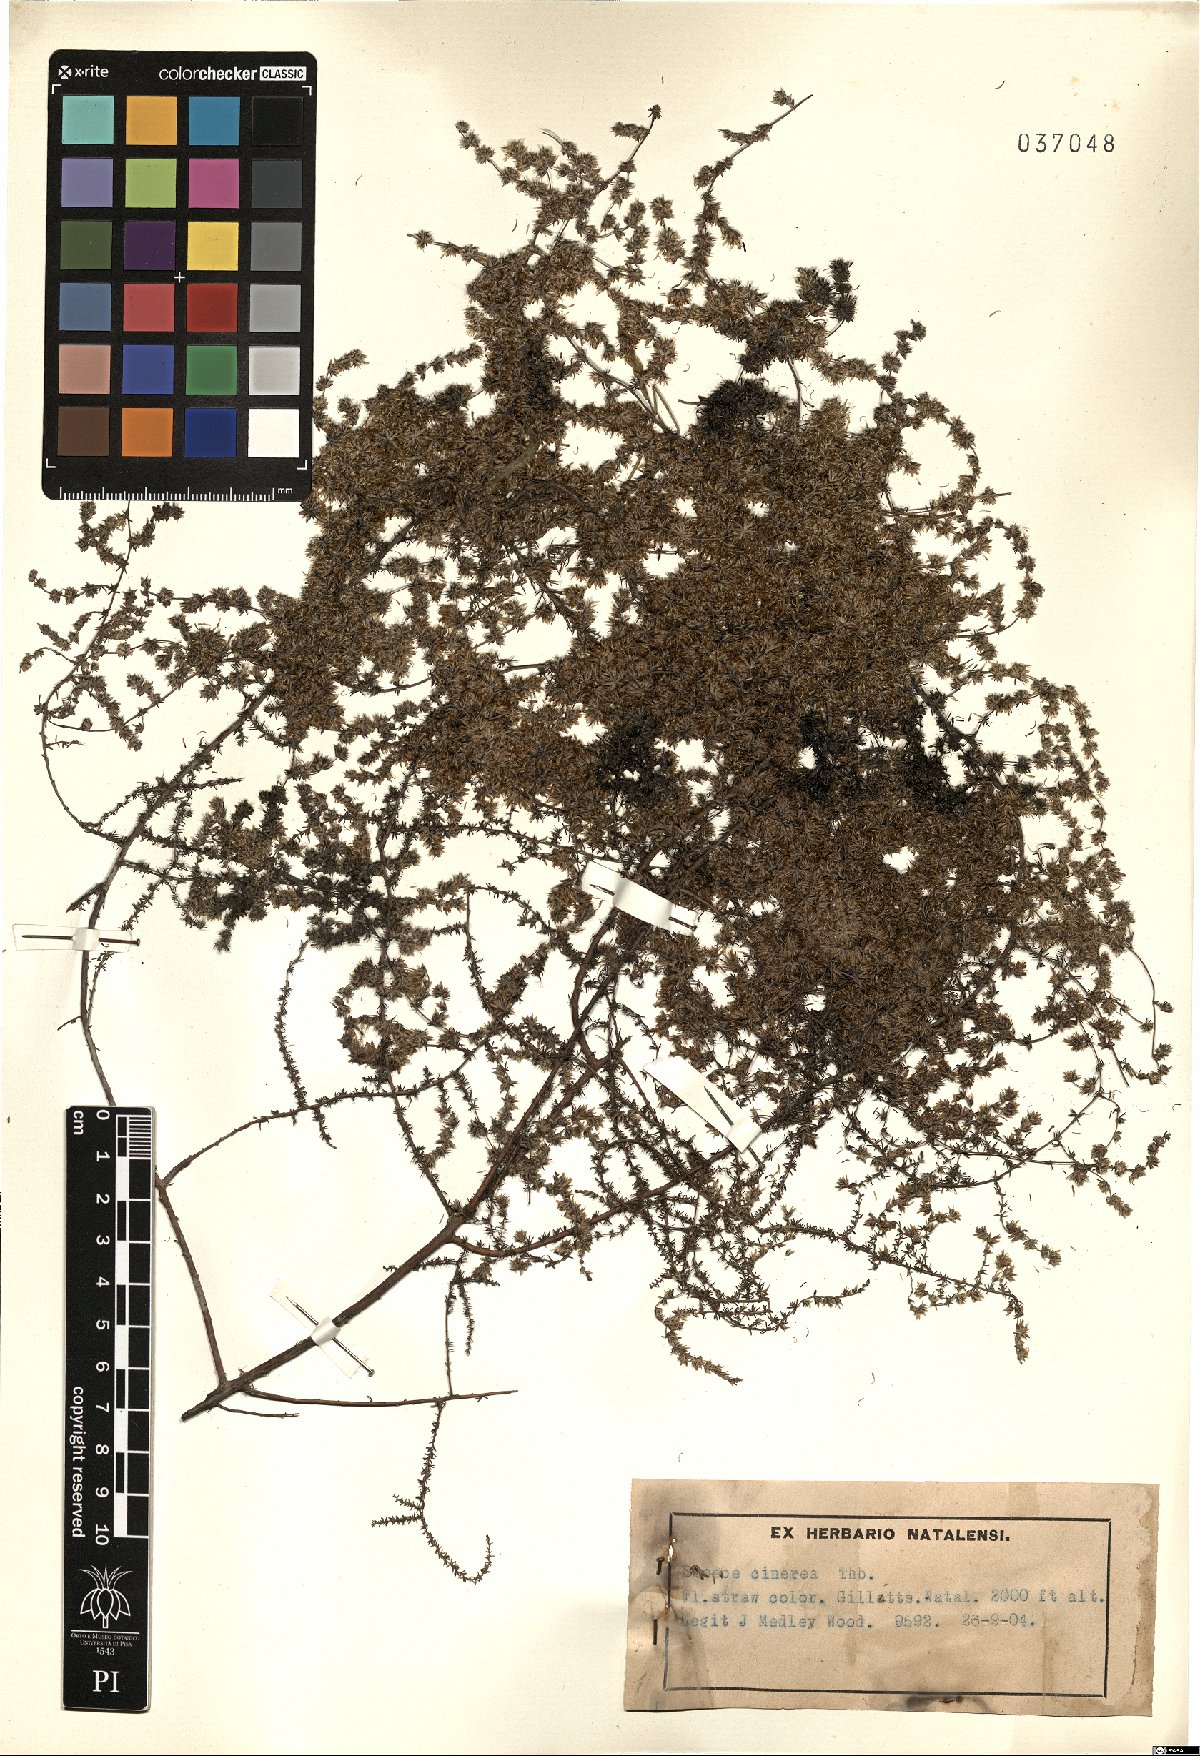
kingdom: Plantae
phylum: Tracheophyta
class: Magnoliopsida
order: Asterales
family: Asteraceae
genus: Seriphium
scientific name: Seriphium cinereum
